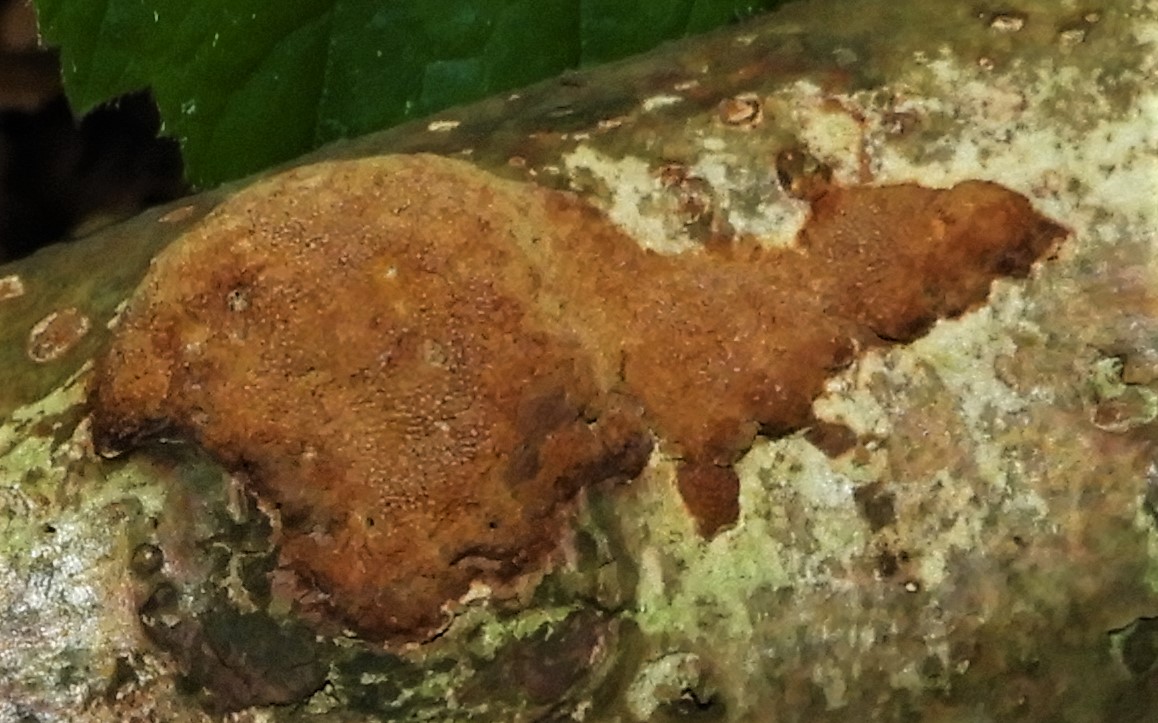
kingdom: Fungi
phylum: Basidiomycota
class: Agaricomycetes
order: Hymenochaetales
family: Hymenochaetaceae
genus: Fuscoporia
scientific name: Fuscoporia ferrea
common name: skorpe-ildporesvamp
